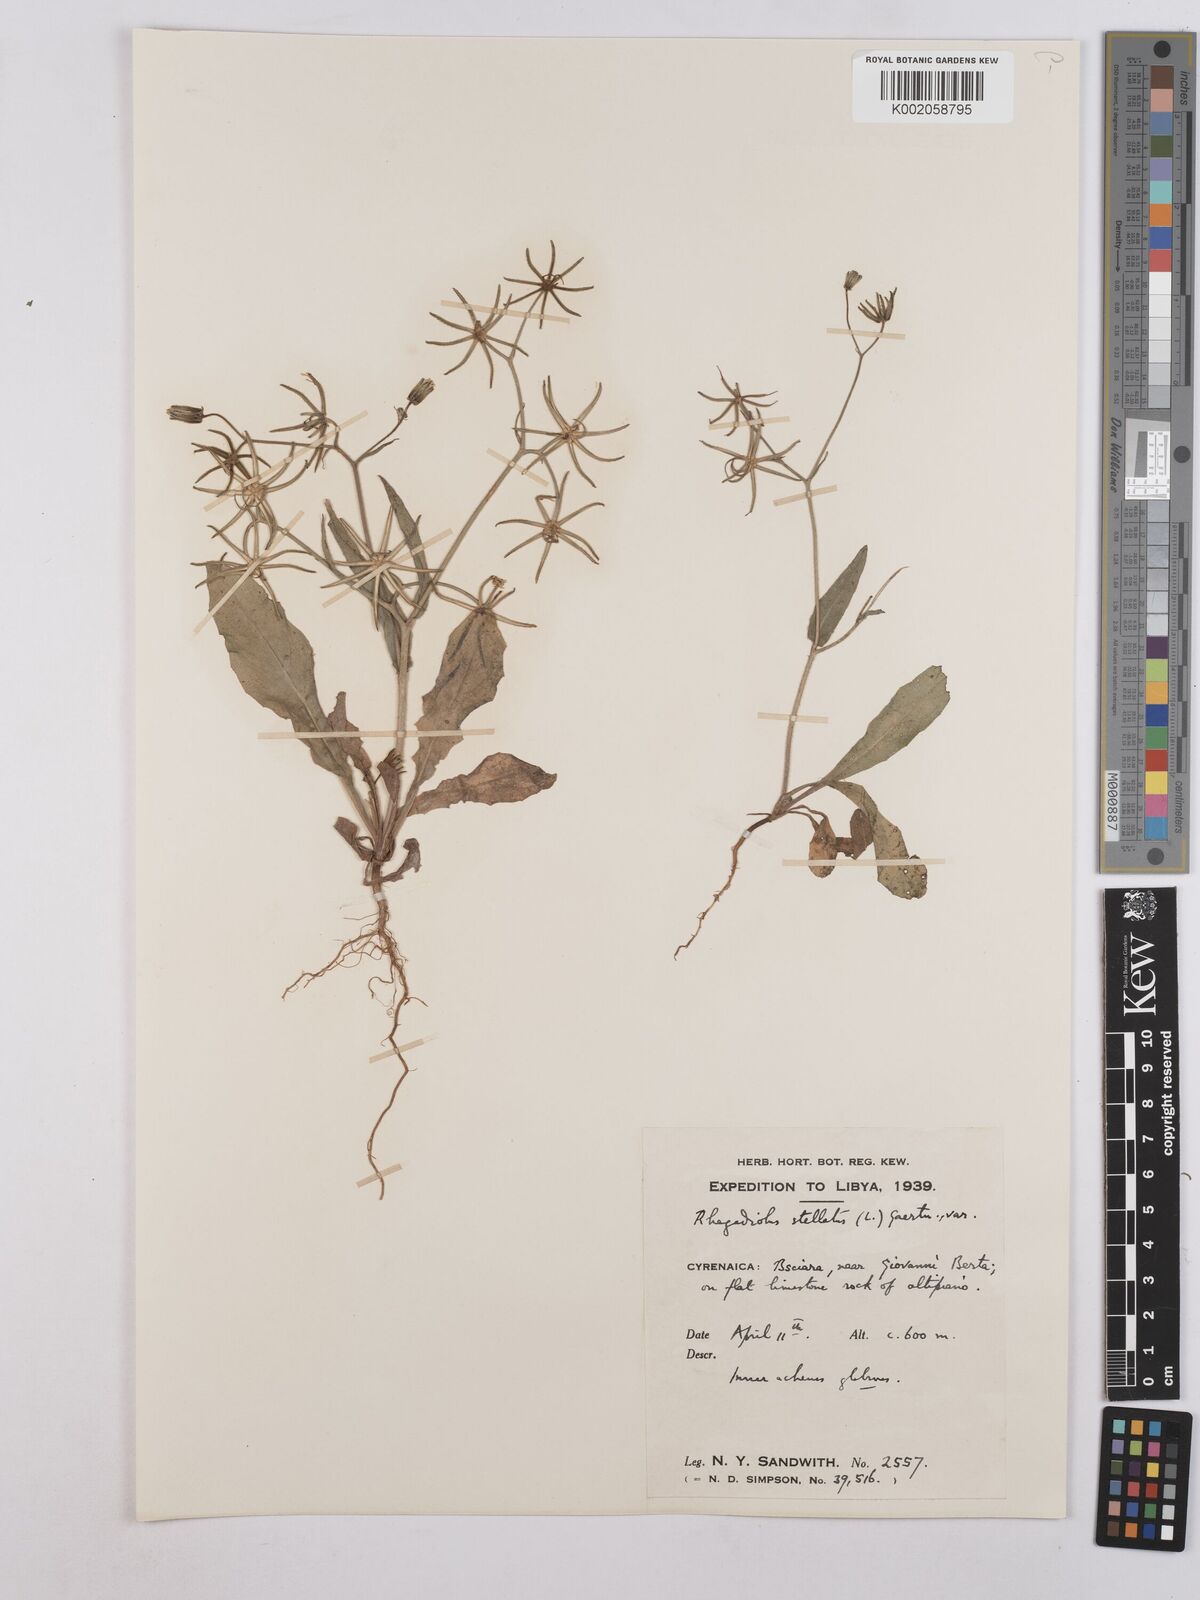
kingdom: Plantae
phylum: Tracheophyta
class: Magnoliopsida
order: Asterales
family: Asteraceae
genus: Rhagadiolus
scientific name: Rhagadiolus stellatus
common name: Star hawkbit
